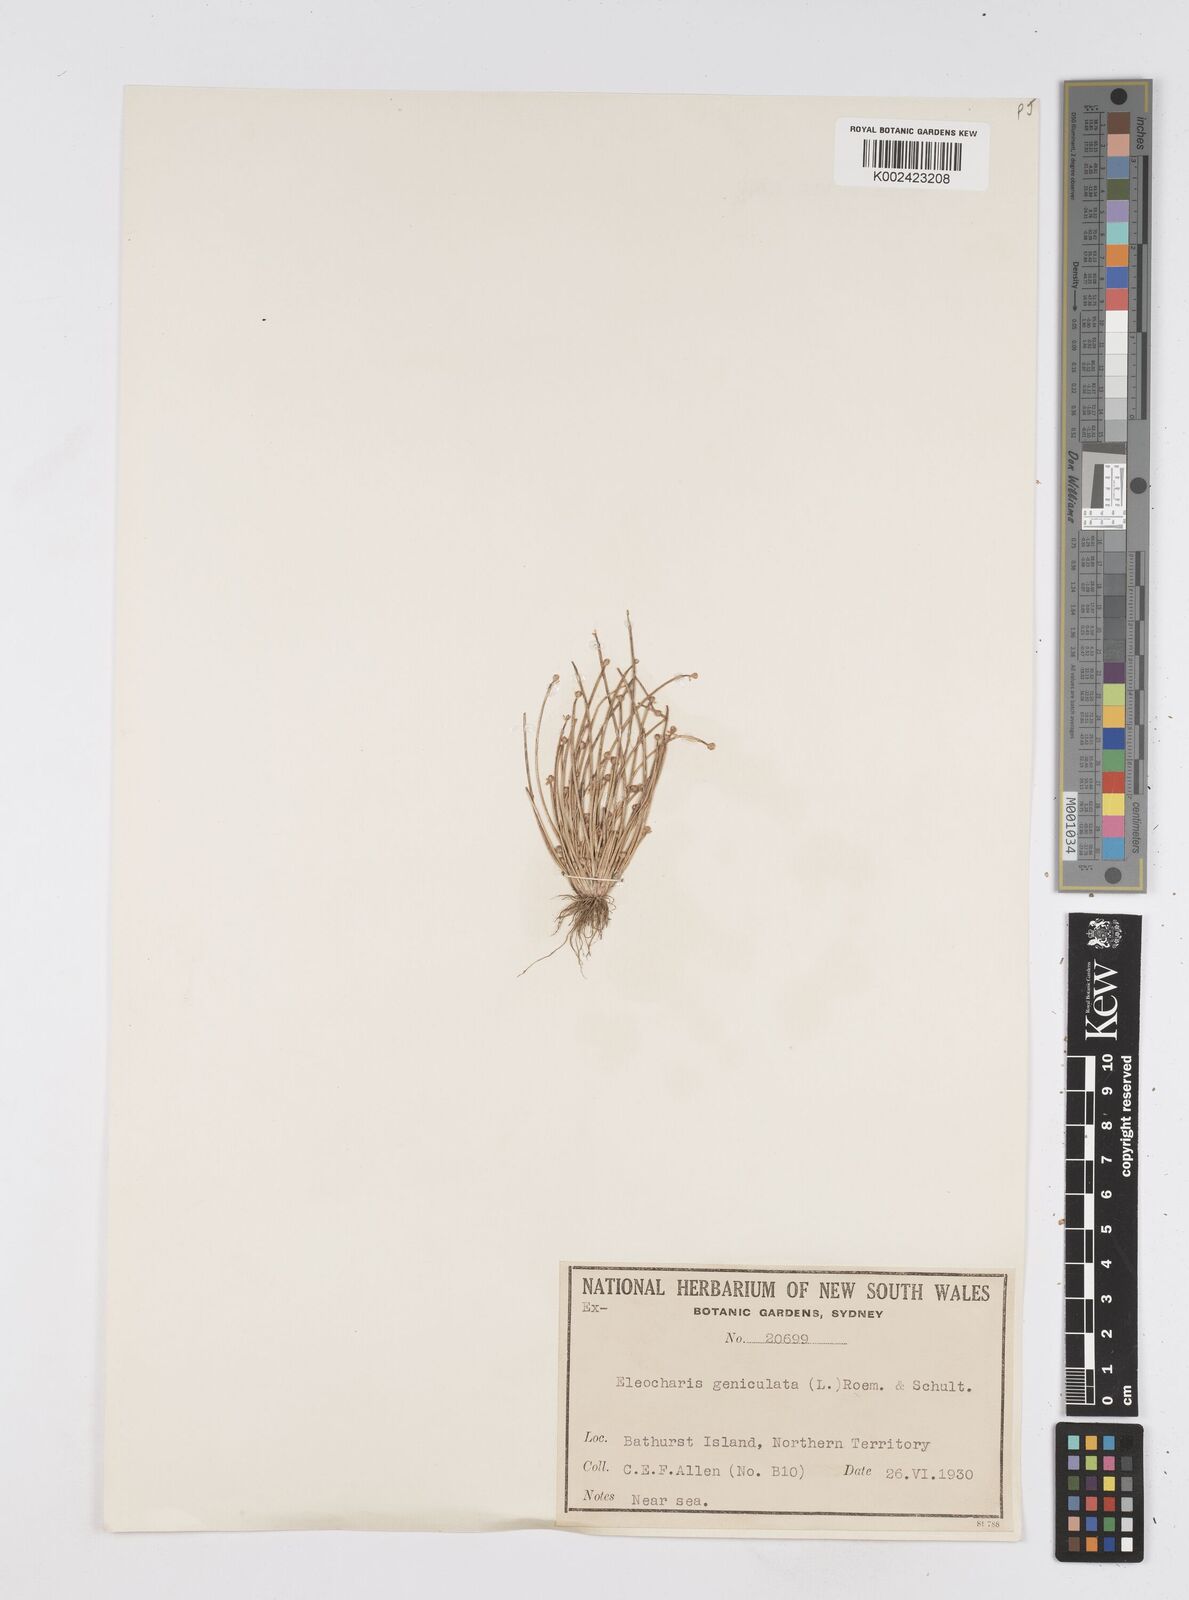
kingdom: Plantae
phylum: Tracheophyta
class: Liliopsida
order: Poales
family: Cyperaceae
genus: Eleocharis
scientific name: Eleocharis geniculata
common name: Canada spikesedge
